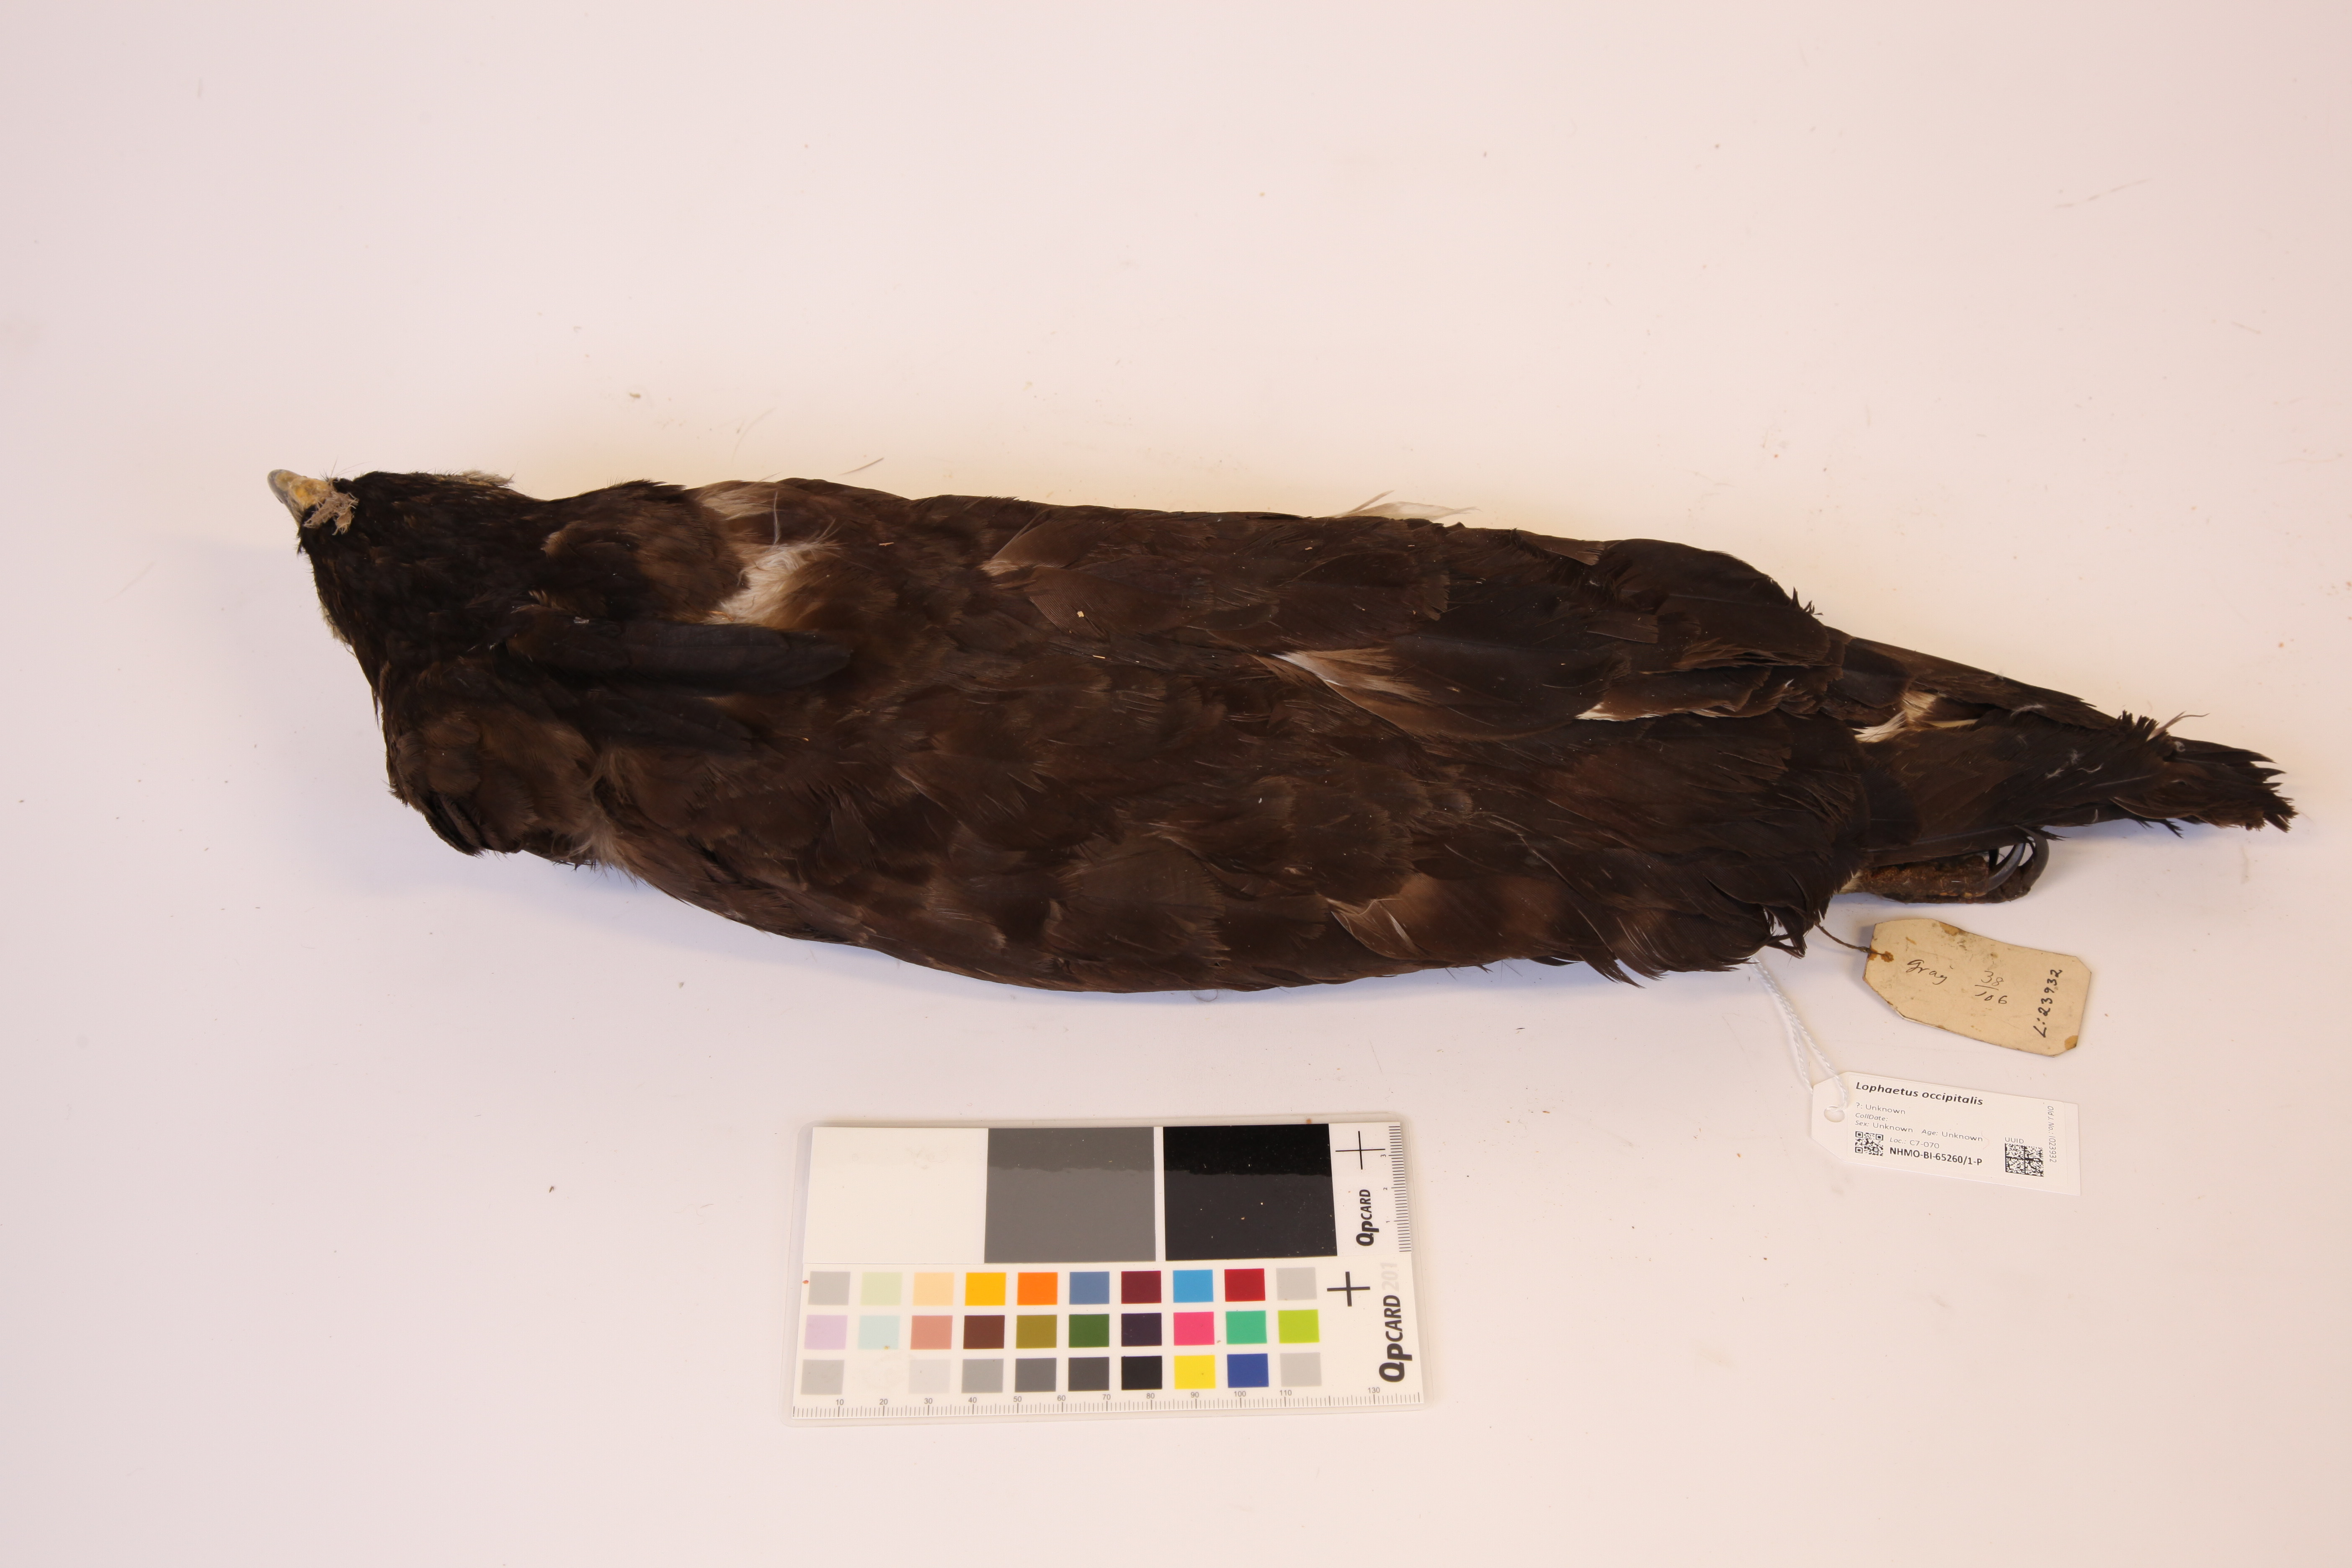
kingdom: Animalia
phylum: Chordata
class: Aves
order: Accipitriformes
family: Accipitridae
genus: Lophaetus
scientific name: Lophaetus occipitalis
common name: Long-crested eagle
